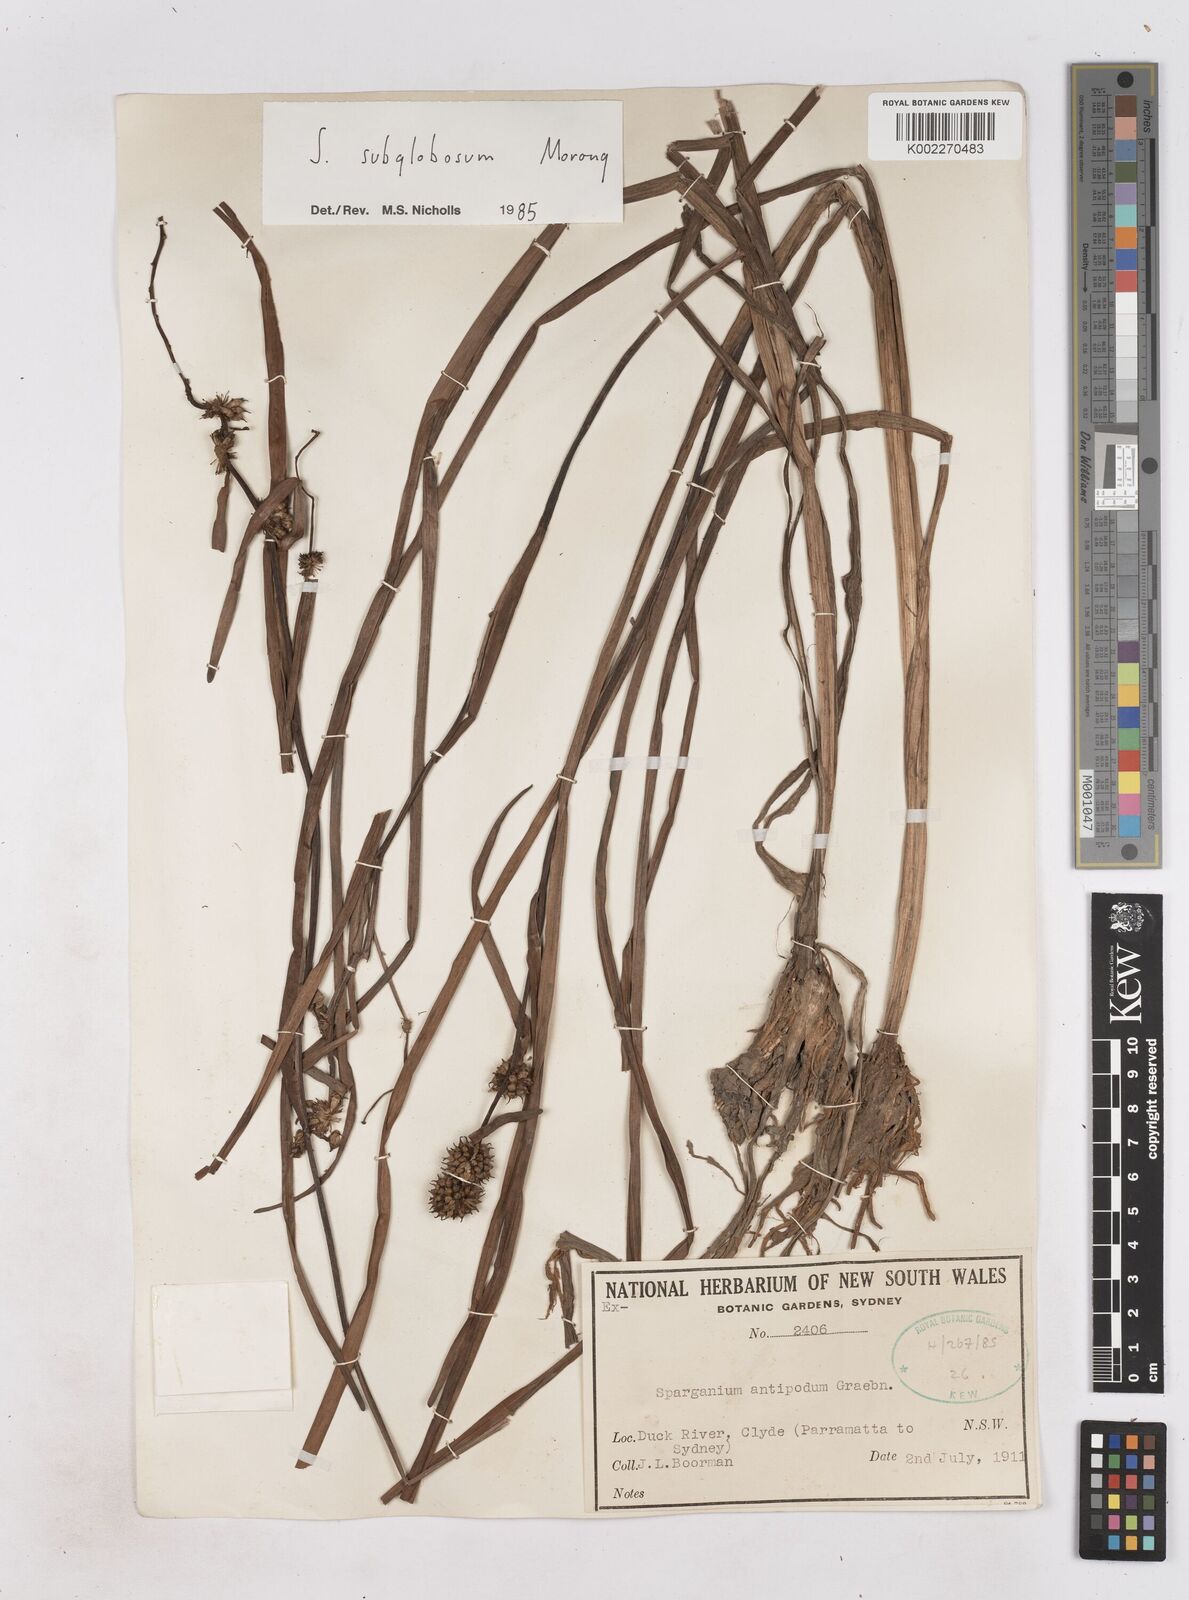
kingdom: Plantae
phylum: Tracheophyta
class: Liliopsida
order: Poales
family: Typhaceae
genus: Sparganium
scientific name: Sparganium subglobosum
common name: Burr­-reed
